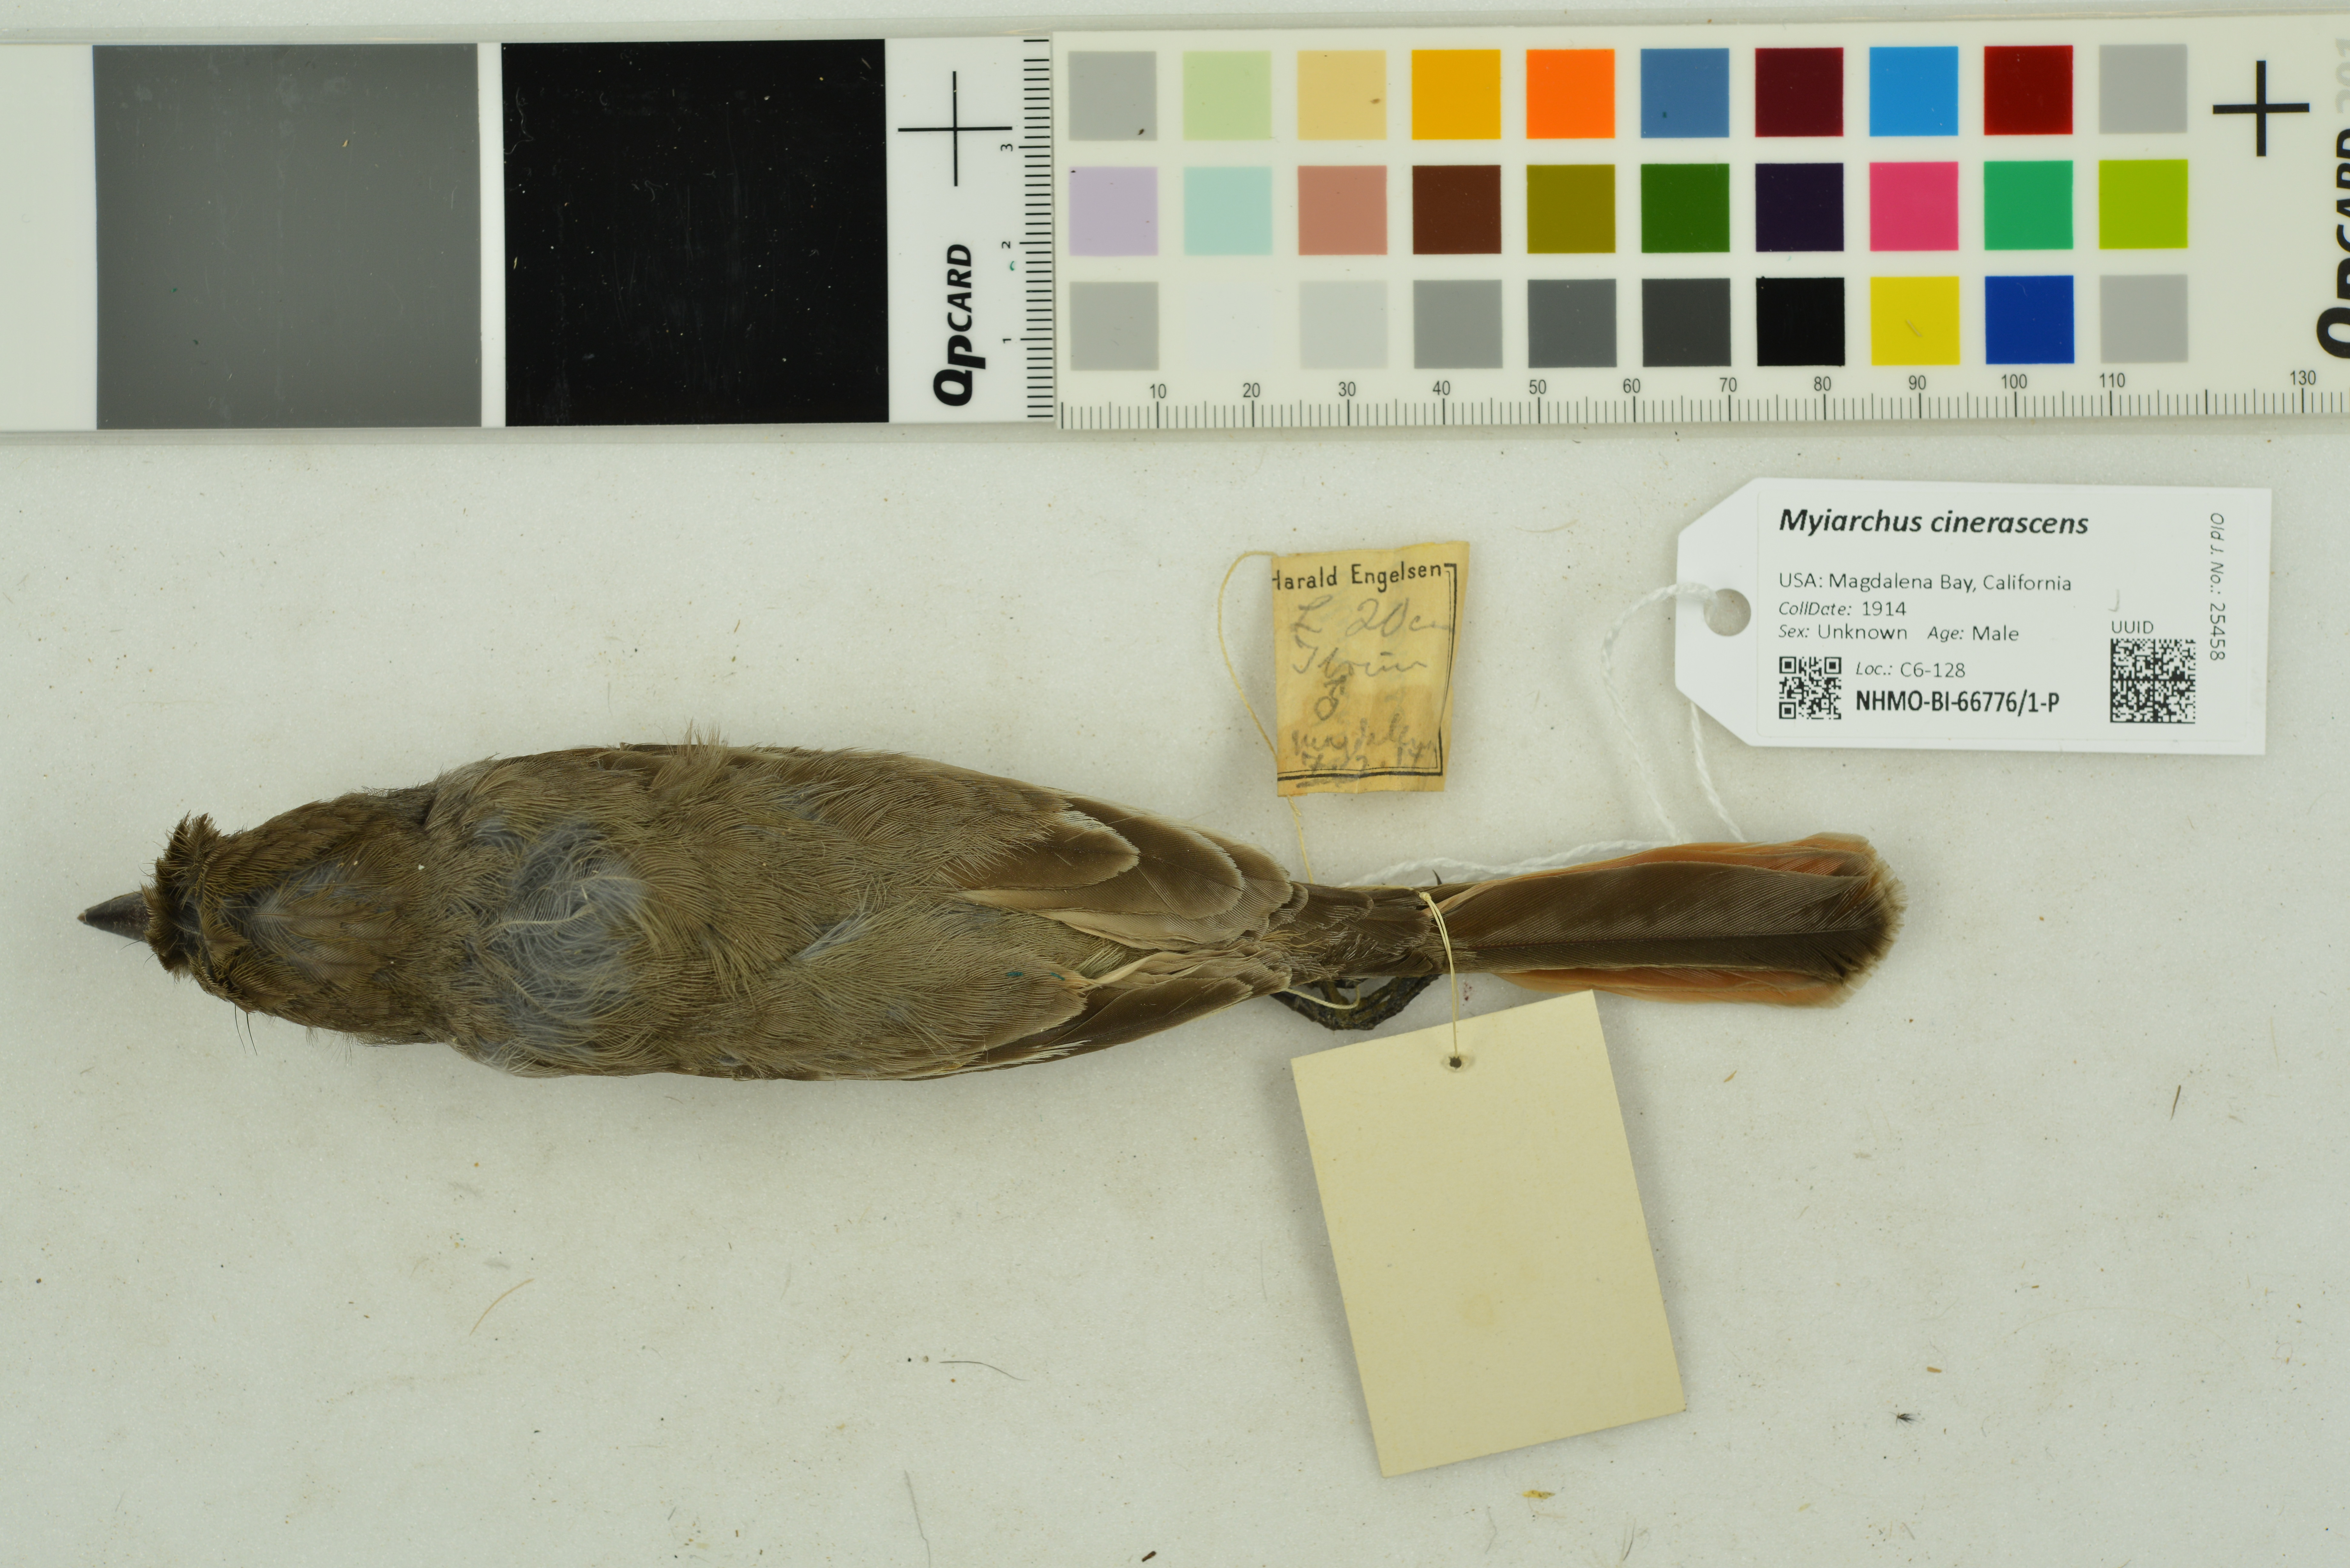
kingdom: Animalia
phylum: Chordata
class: Aves
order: Passeriformes
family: Tyrannidae
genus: Myiarchus
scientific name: Myiarchus cinerascens
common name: Ash-throated flycatcher
